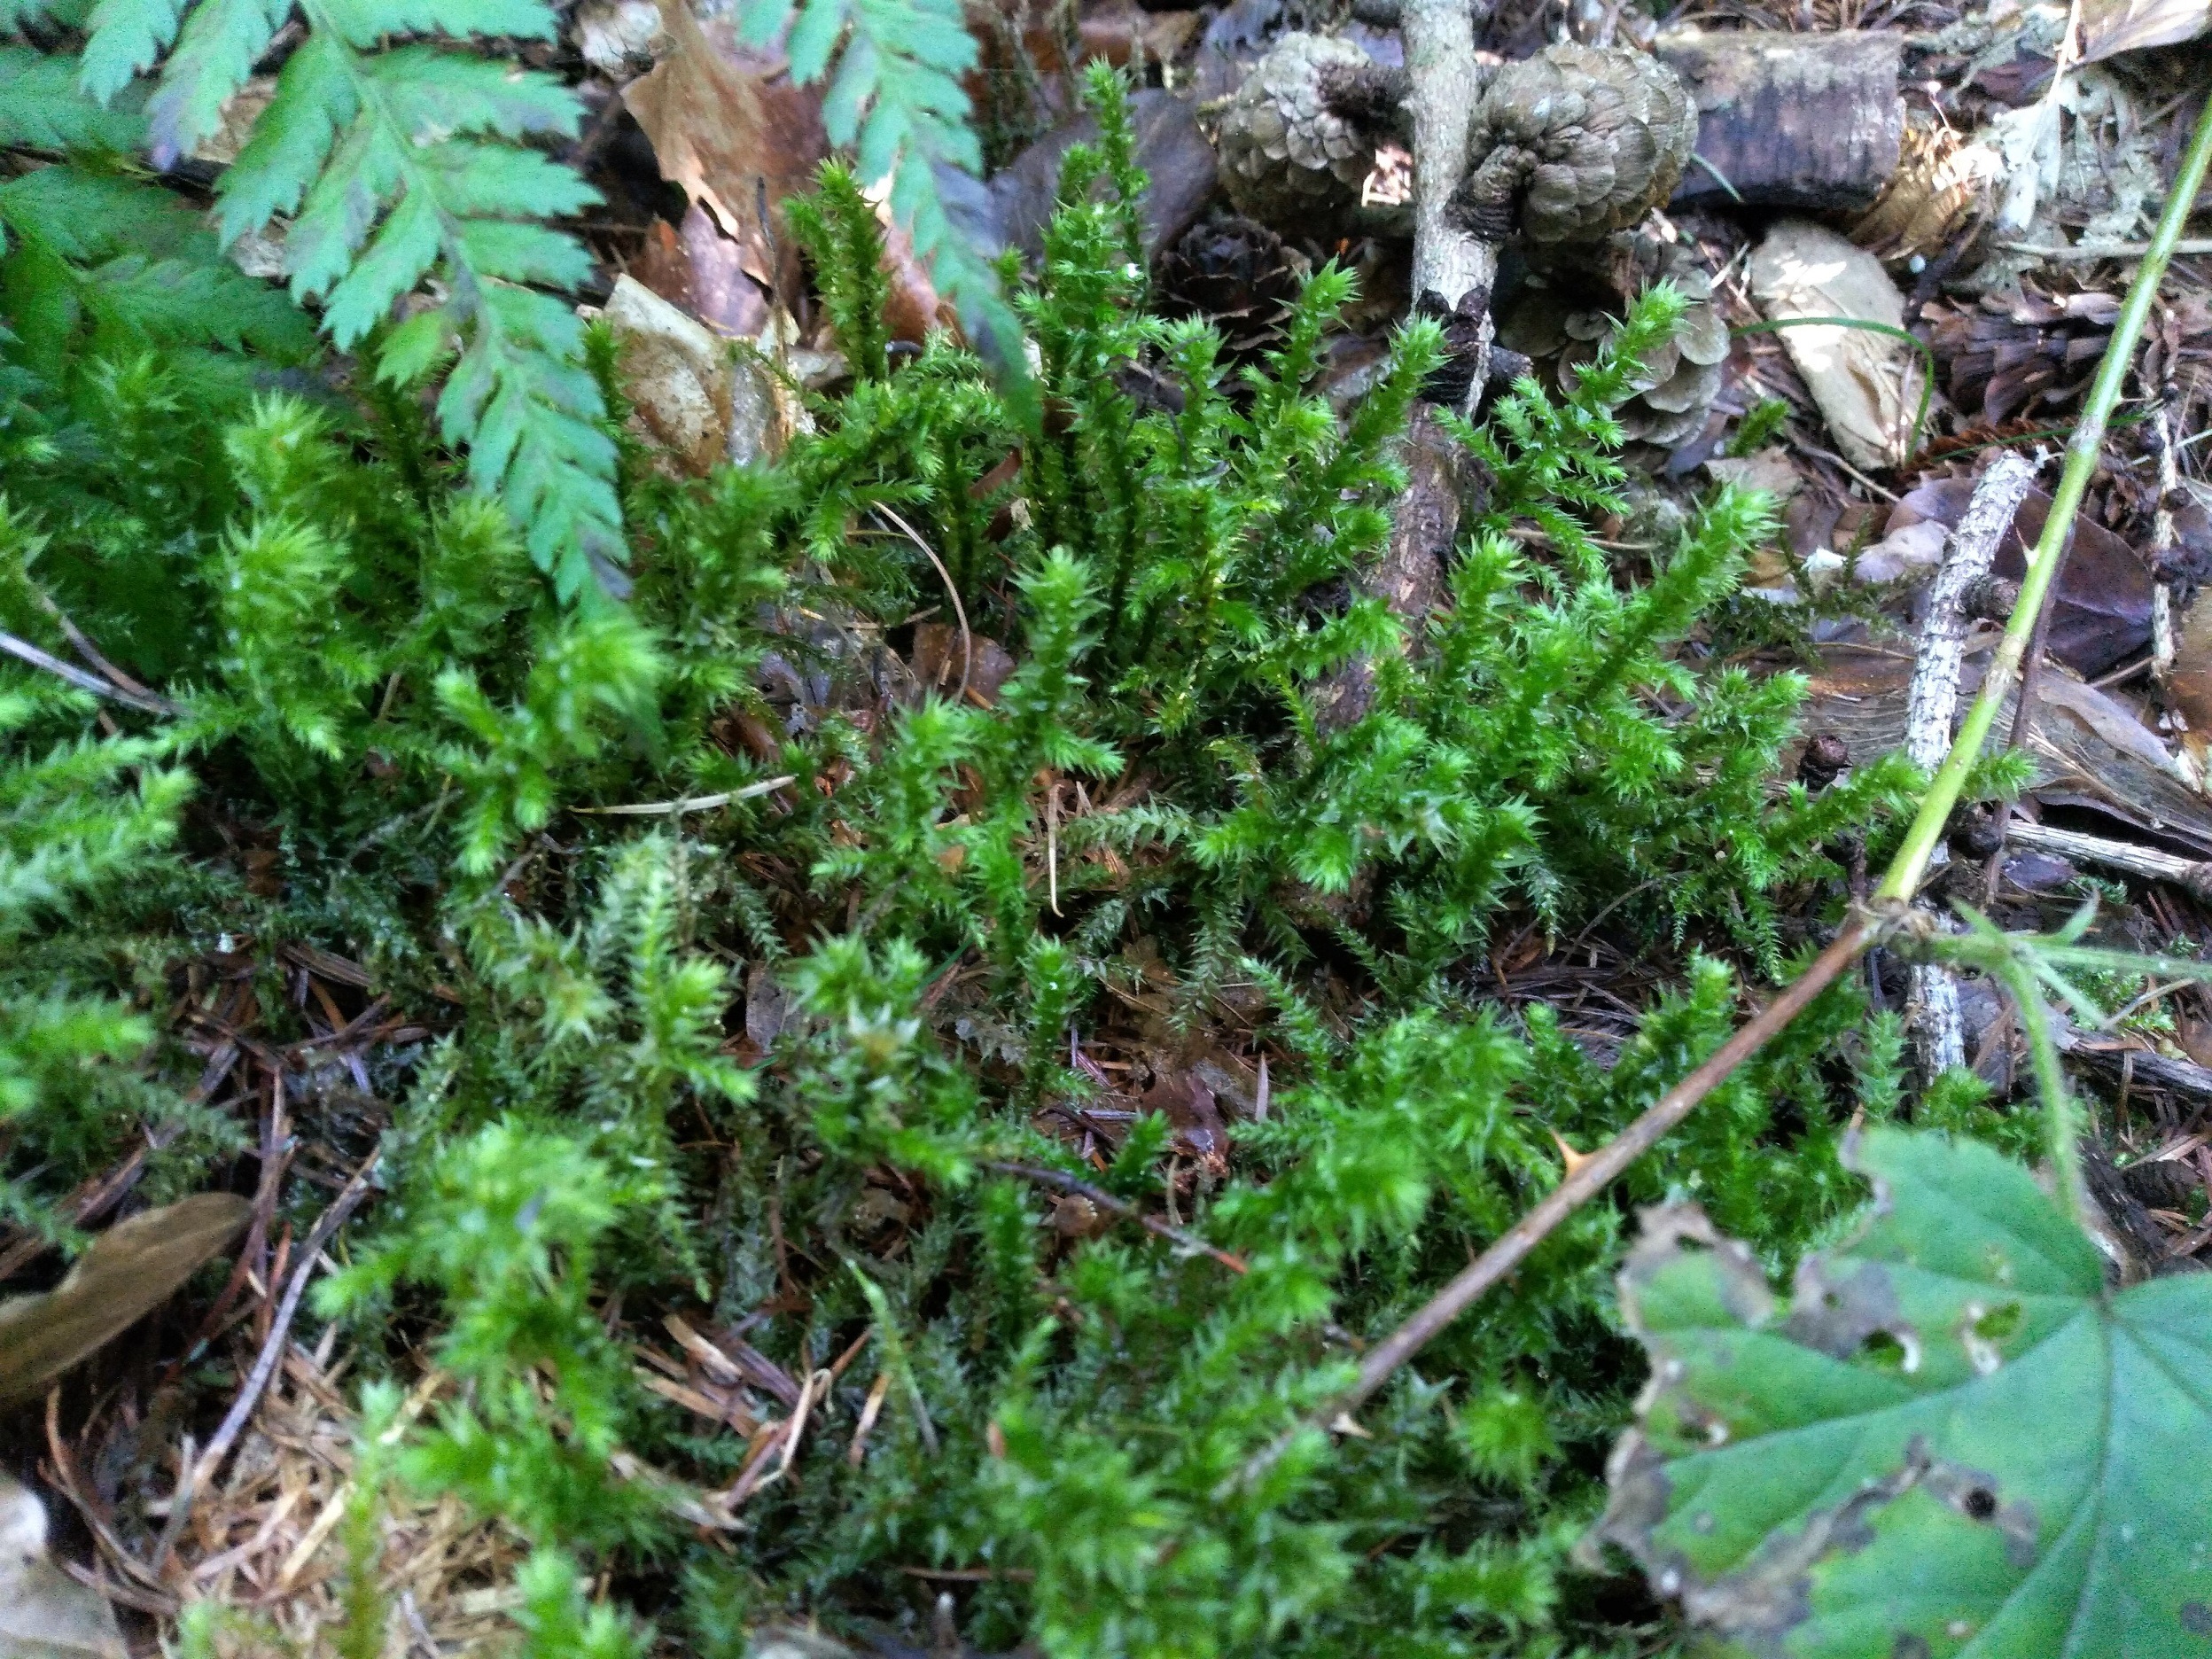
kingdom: Plantae
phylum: Bryophyta
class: Bryopsida
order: Hypnales
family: Hylocomiaceae
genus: Hylocomiadelphus
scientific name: Hylocomiadelphus triquetrus
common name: Stor kransemos
